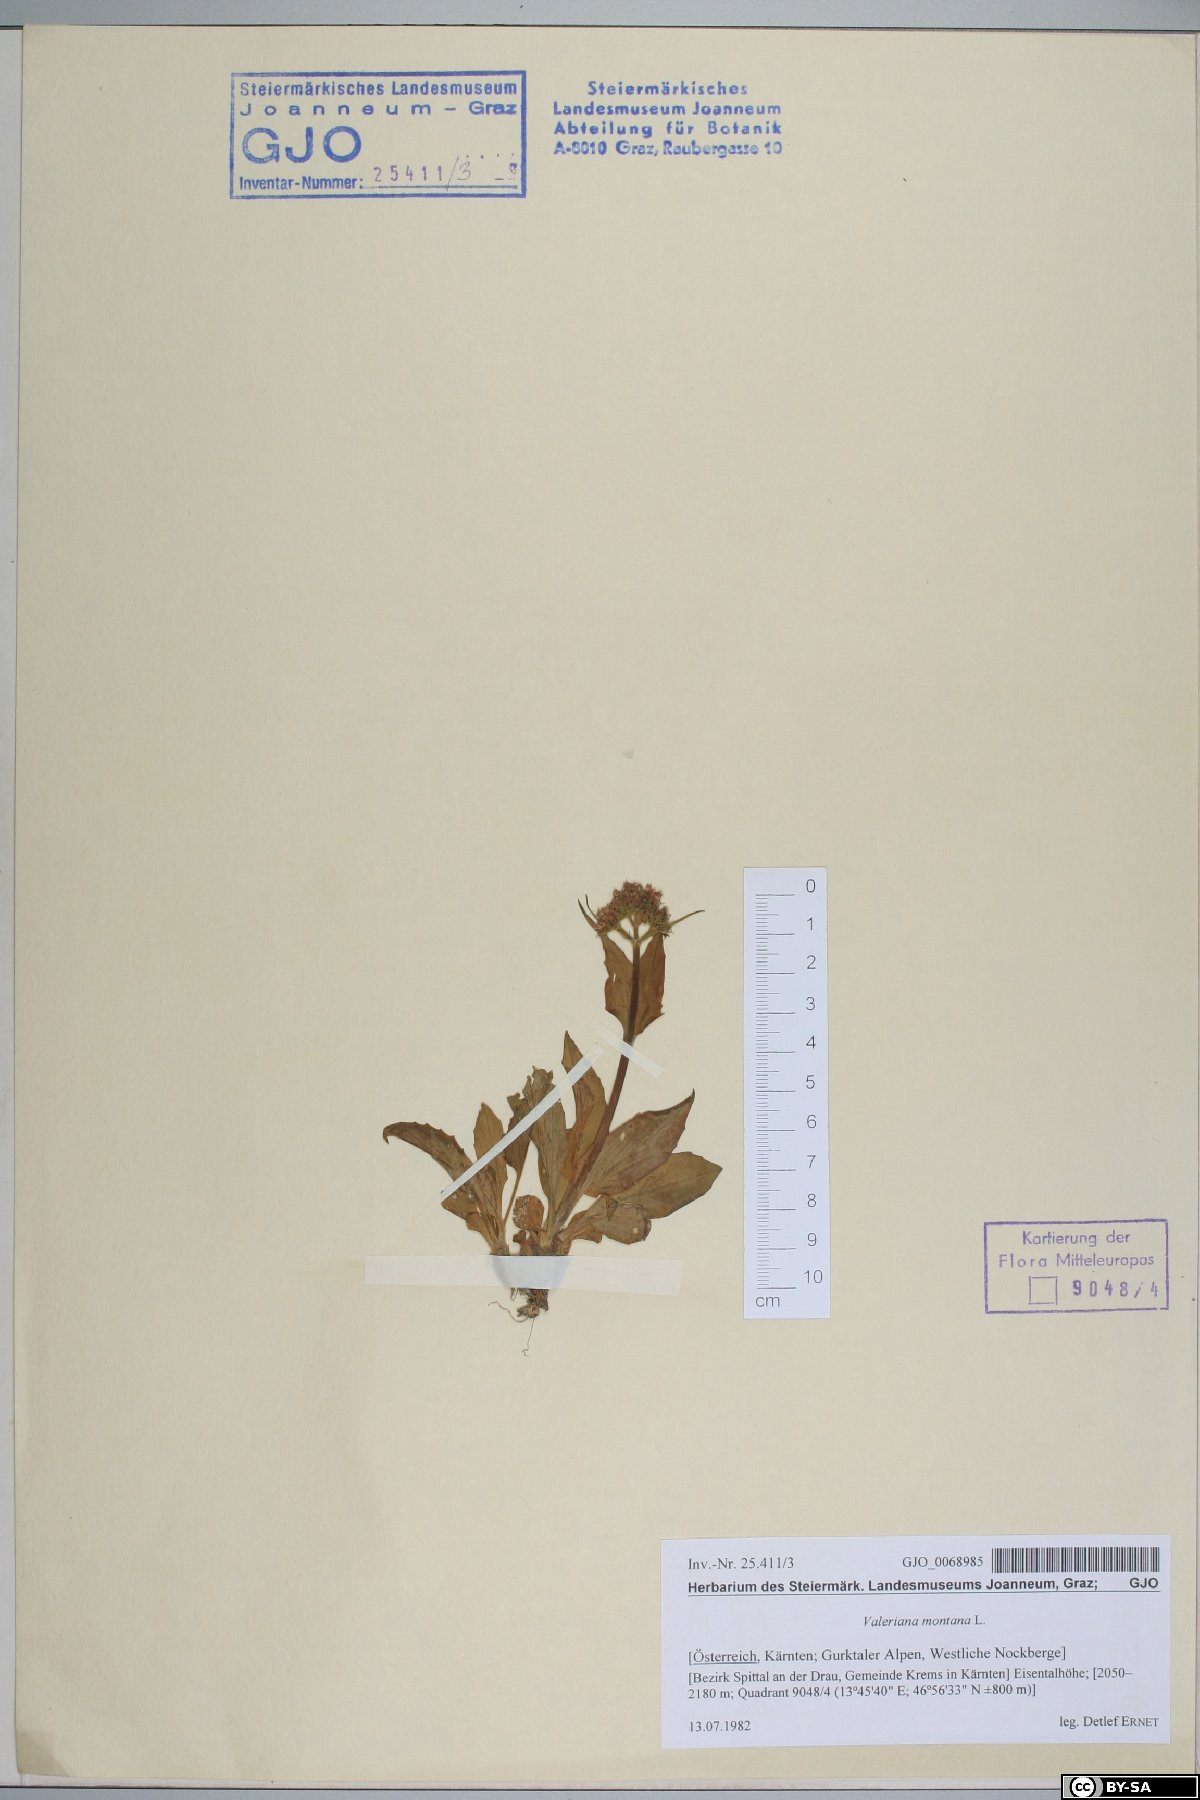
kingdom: Plantae
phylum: Tracheophyta
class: Magnoliopsida
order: Dipsacales
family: Caprifoliaceae
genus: Valeriana
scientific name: Valeriana montana
